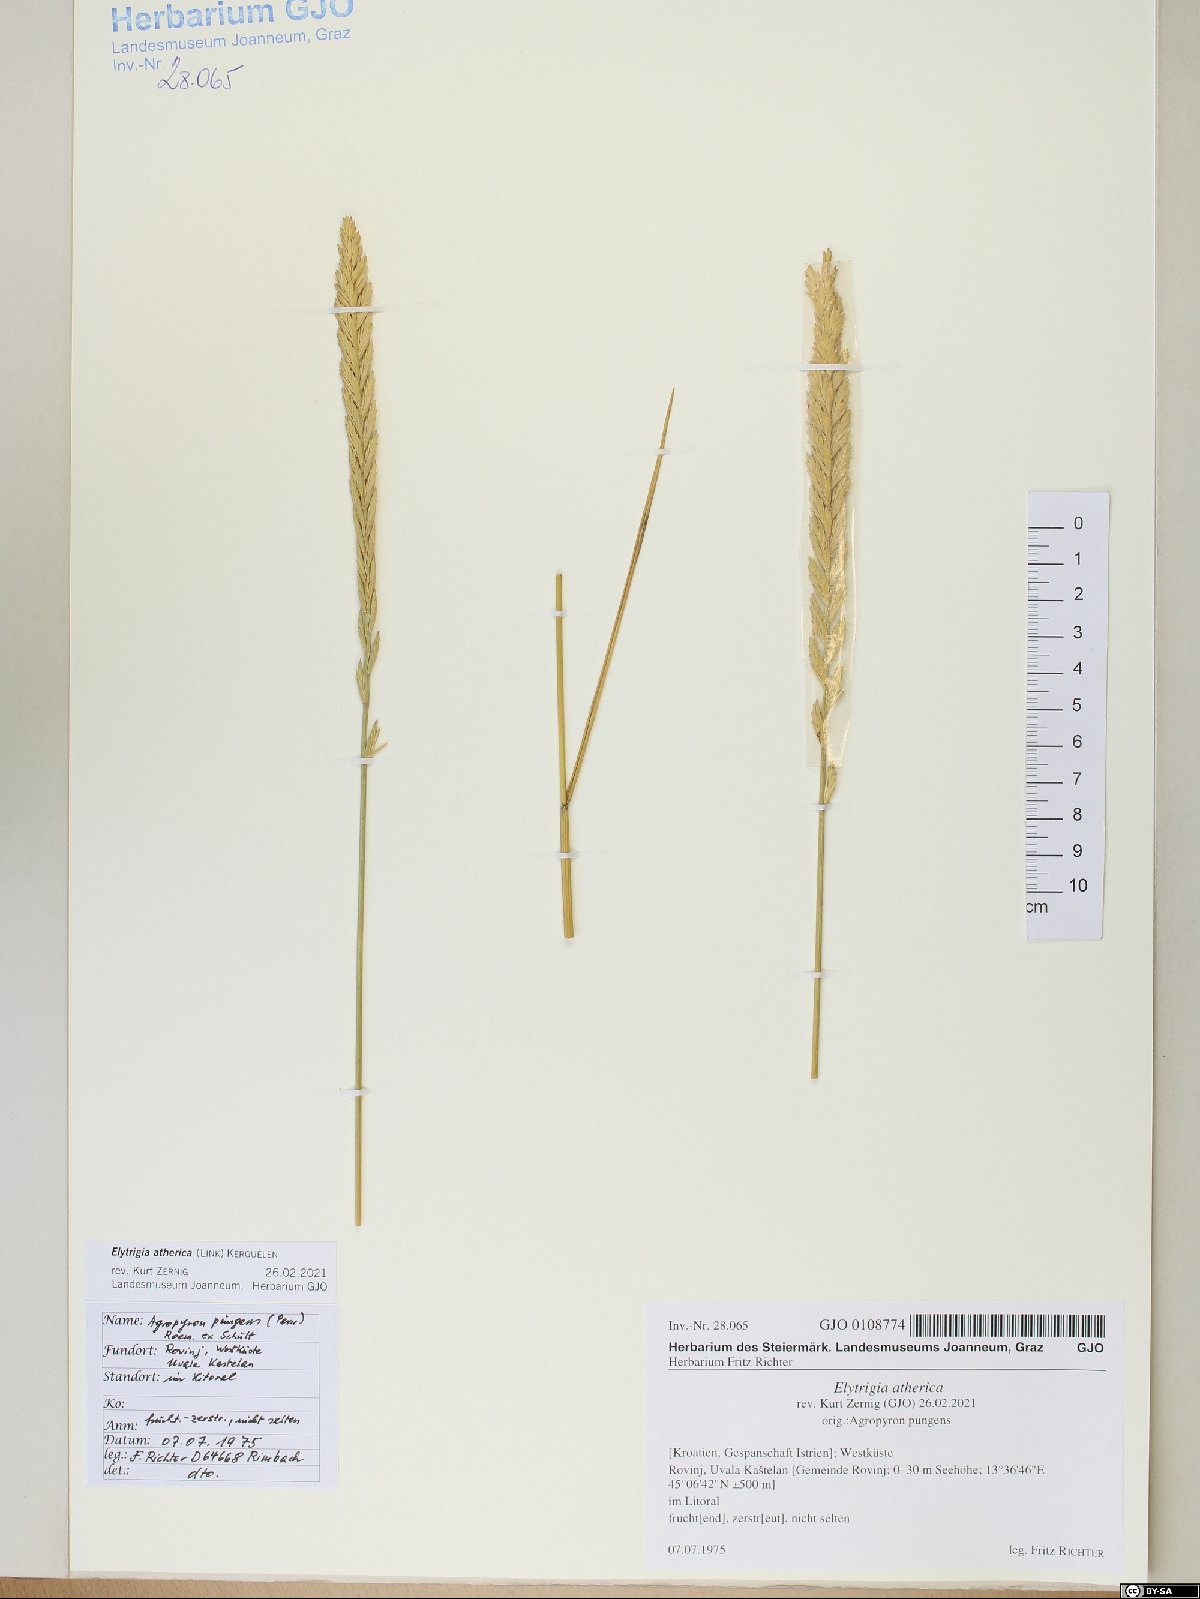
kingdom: Plantae
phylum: Tracheophyta
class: Liliopsida
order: Poales
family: Poaceae
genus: Elymus
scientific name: Elymus athericus
